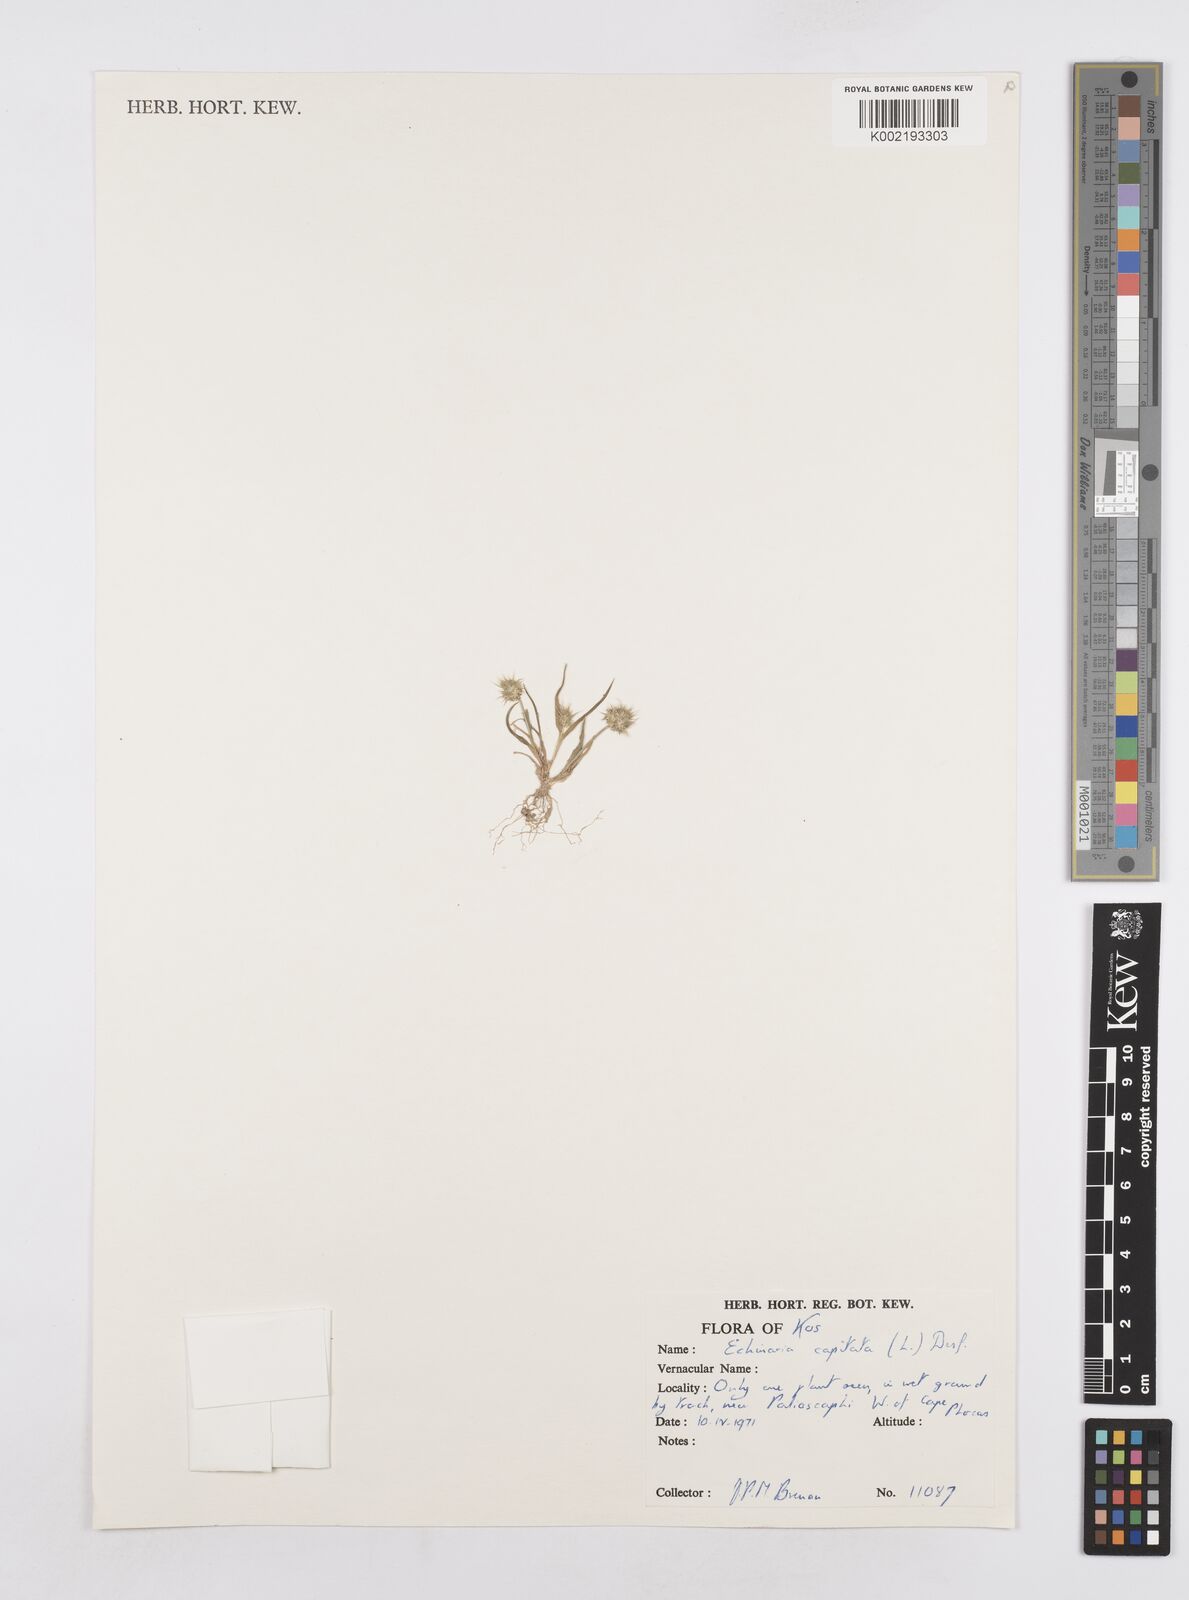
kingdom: Plantae
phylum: Tracheophyta
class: Liliopsida
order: Poales
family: Poaceae
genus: Echinaria
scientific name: Echinaria capitata
